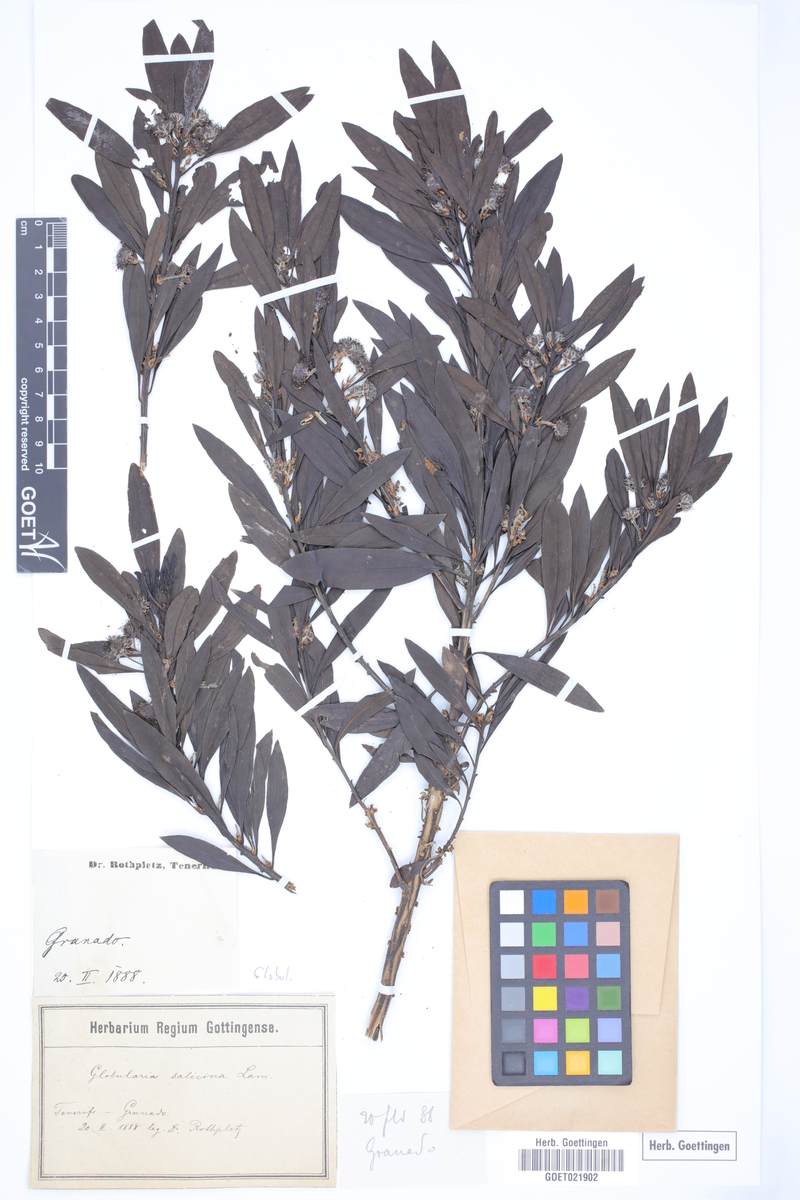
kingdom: Plantae
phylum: Tracheophyta
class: Magnoliopsida
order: Lamiales
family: Plantaginaceae
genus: Globularia
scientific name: Globularia salicina
